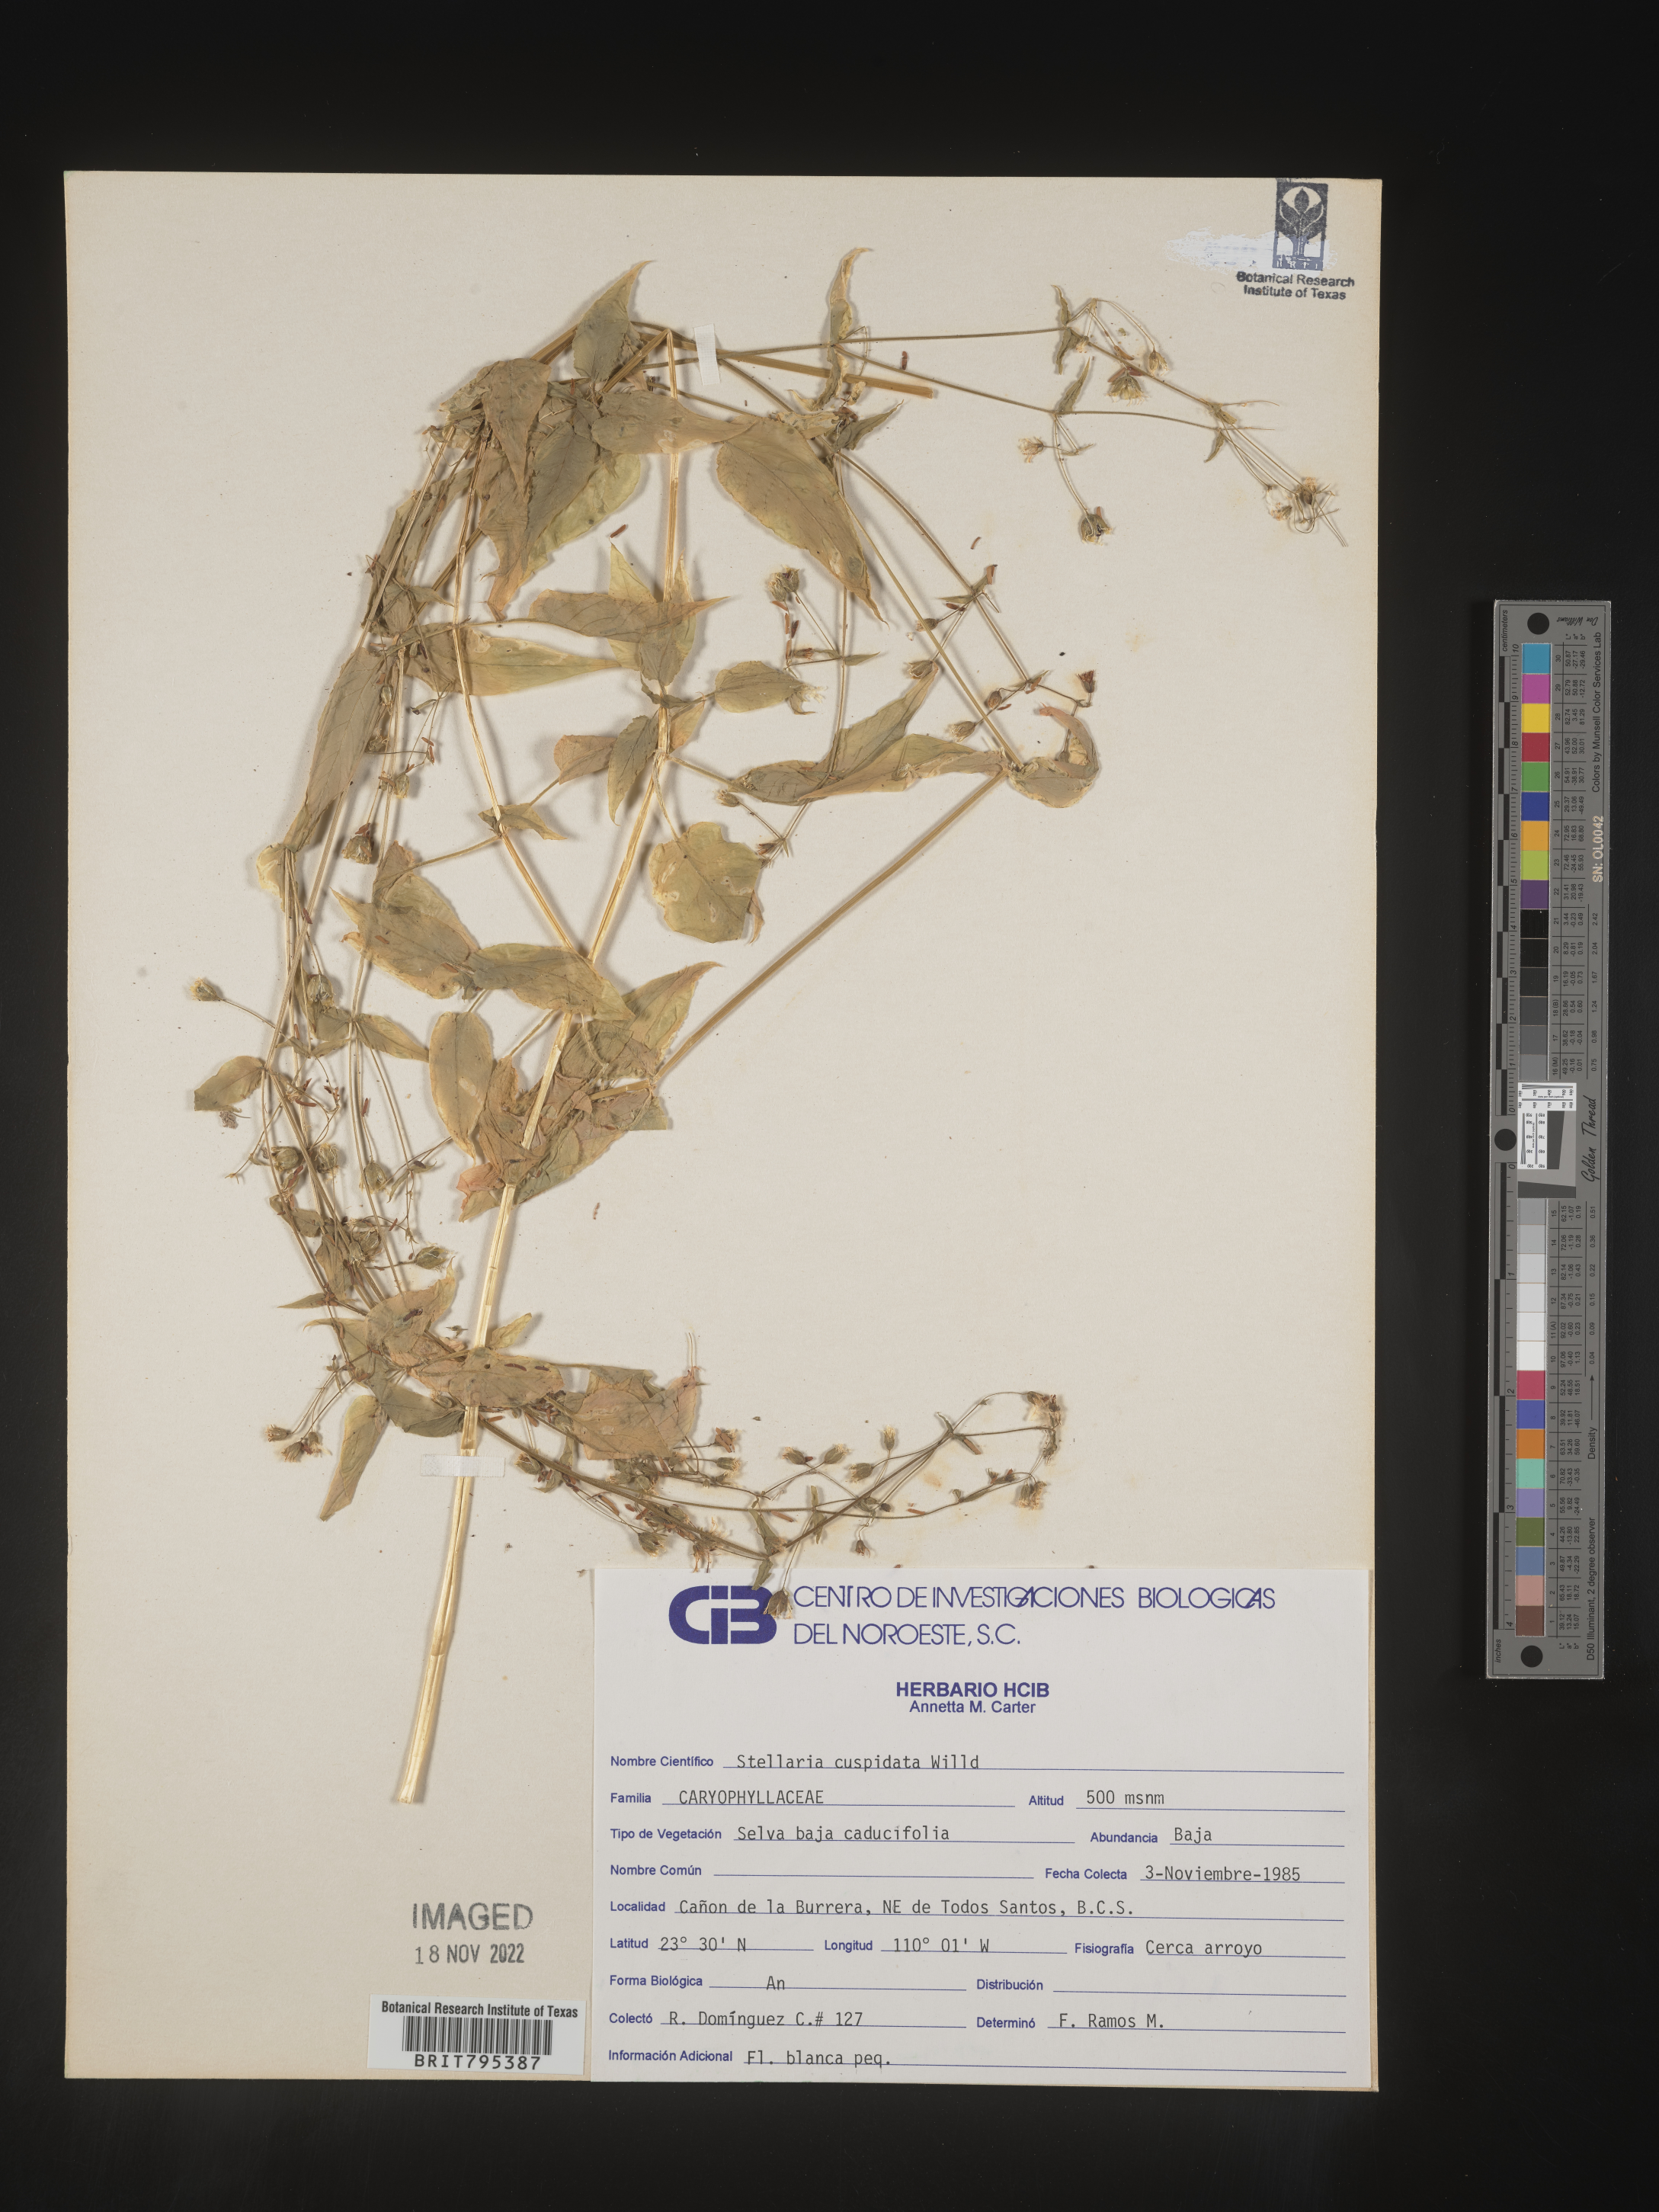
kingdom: Plantae
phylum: Tracheophyta
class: Magnoliopsida
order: Caryophyllales
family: Caryophyllaceae
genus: Stellaria
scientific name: Stellaria
